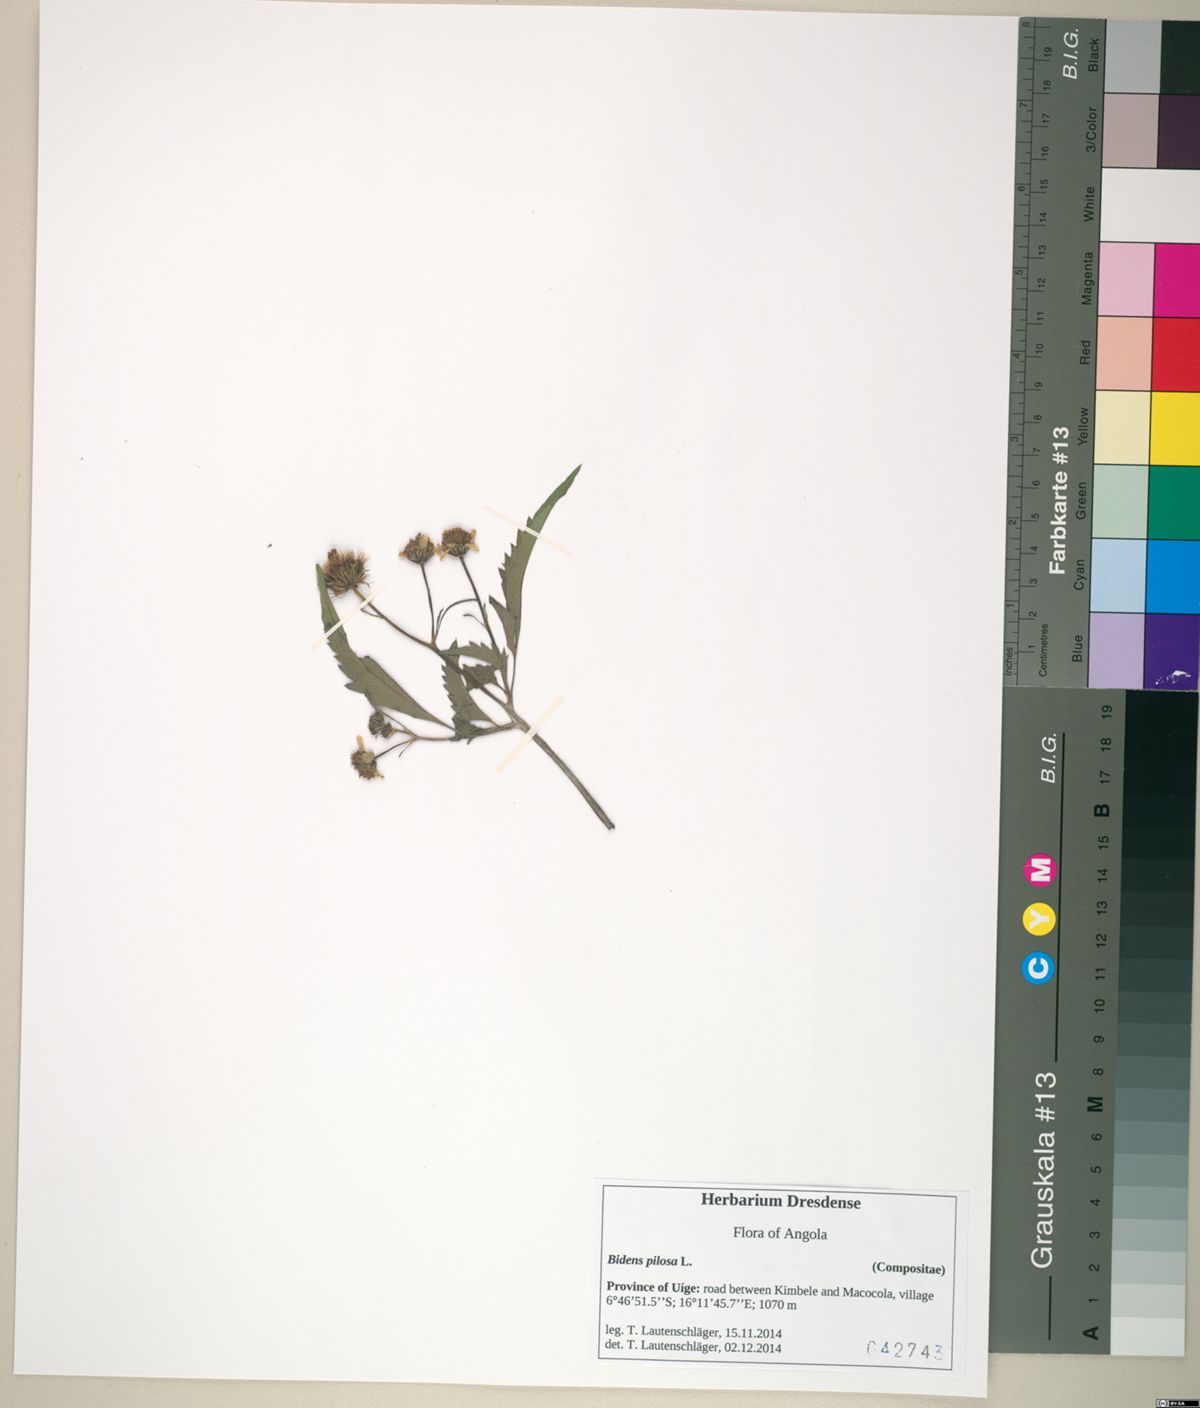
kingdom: Plantae
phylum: Tracheophyta
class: Magnoliopsida
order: Asterales
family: Asteraceae
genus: Bidens
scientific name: Bidens pilosa
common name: Black-jack
